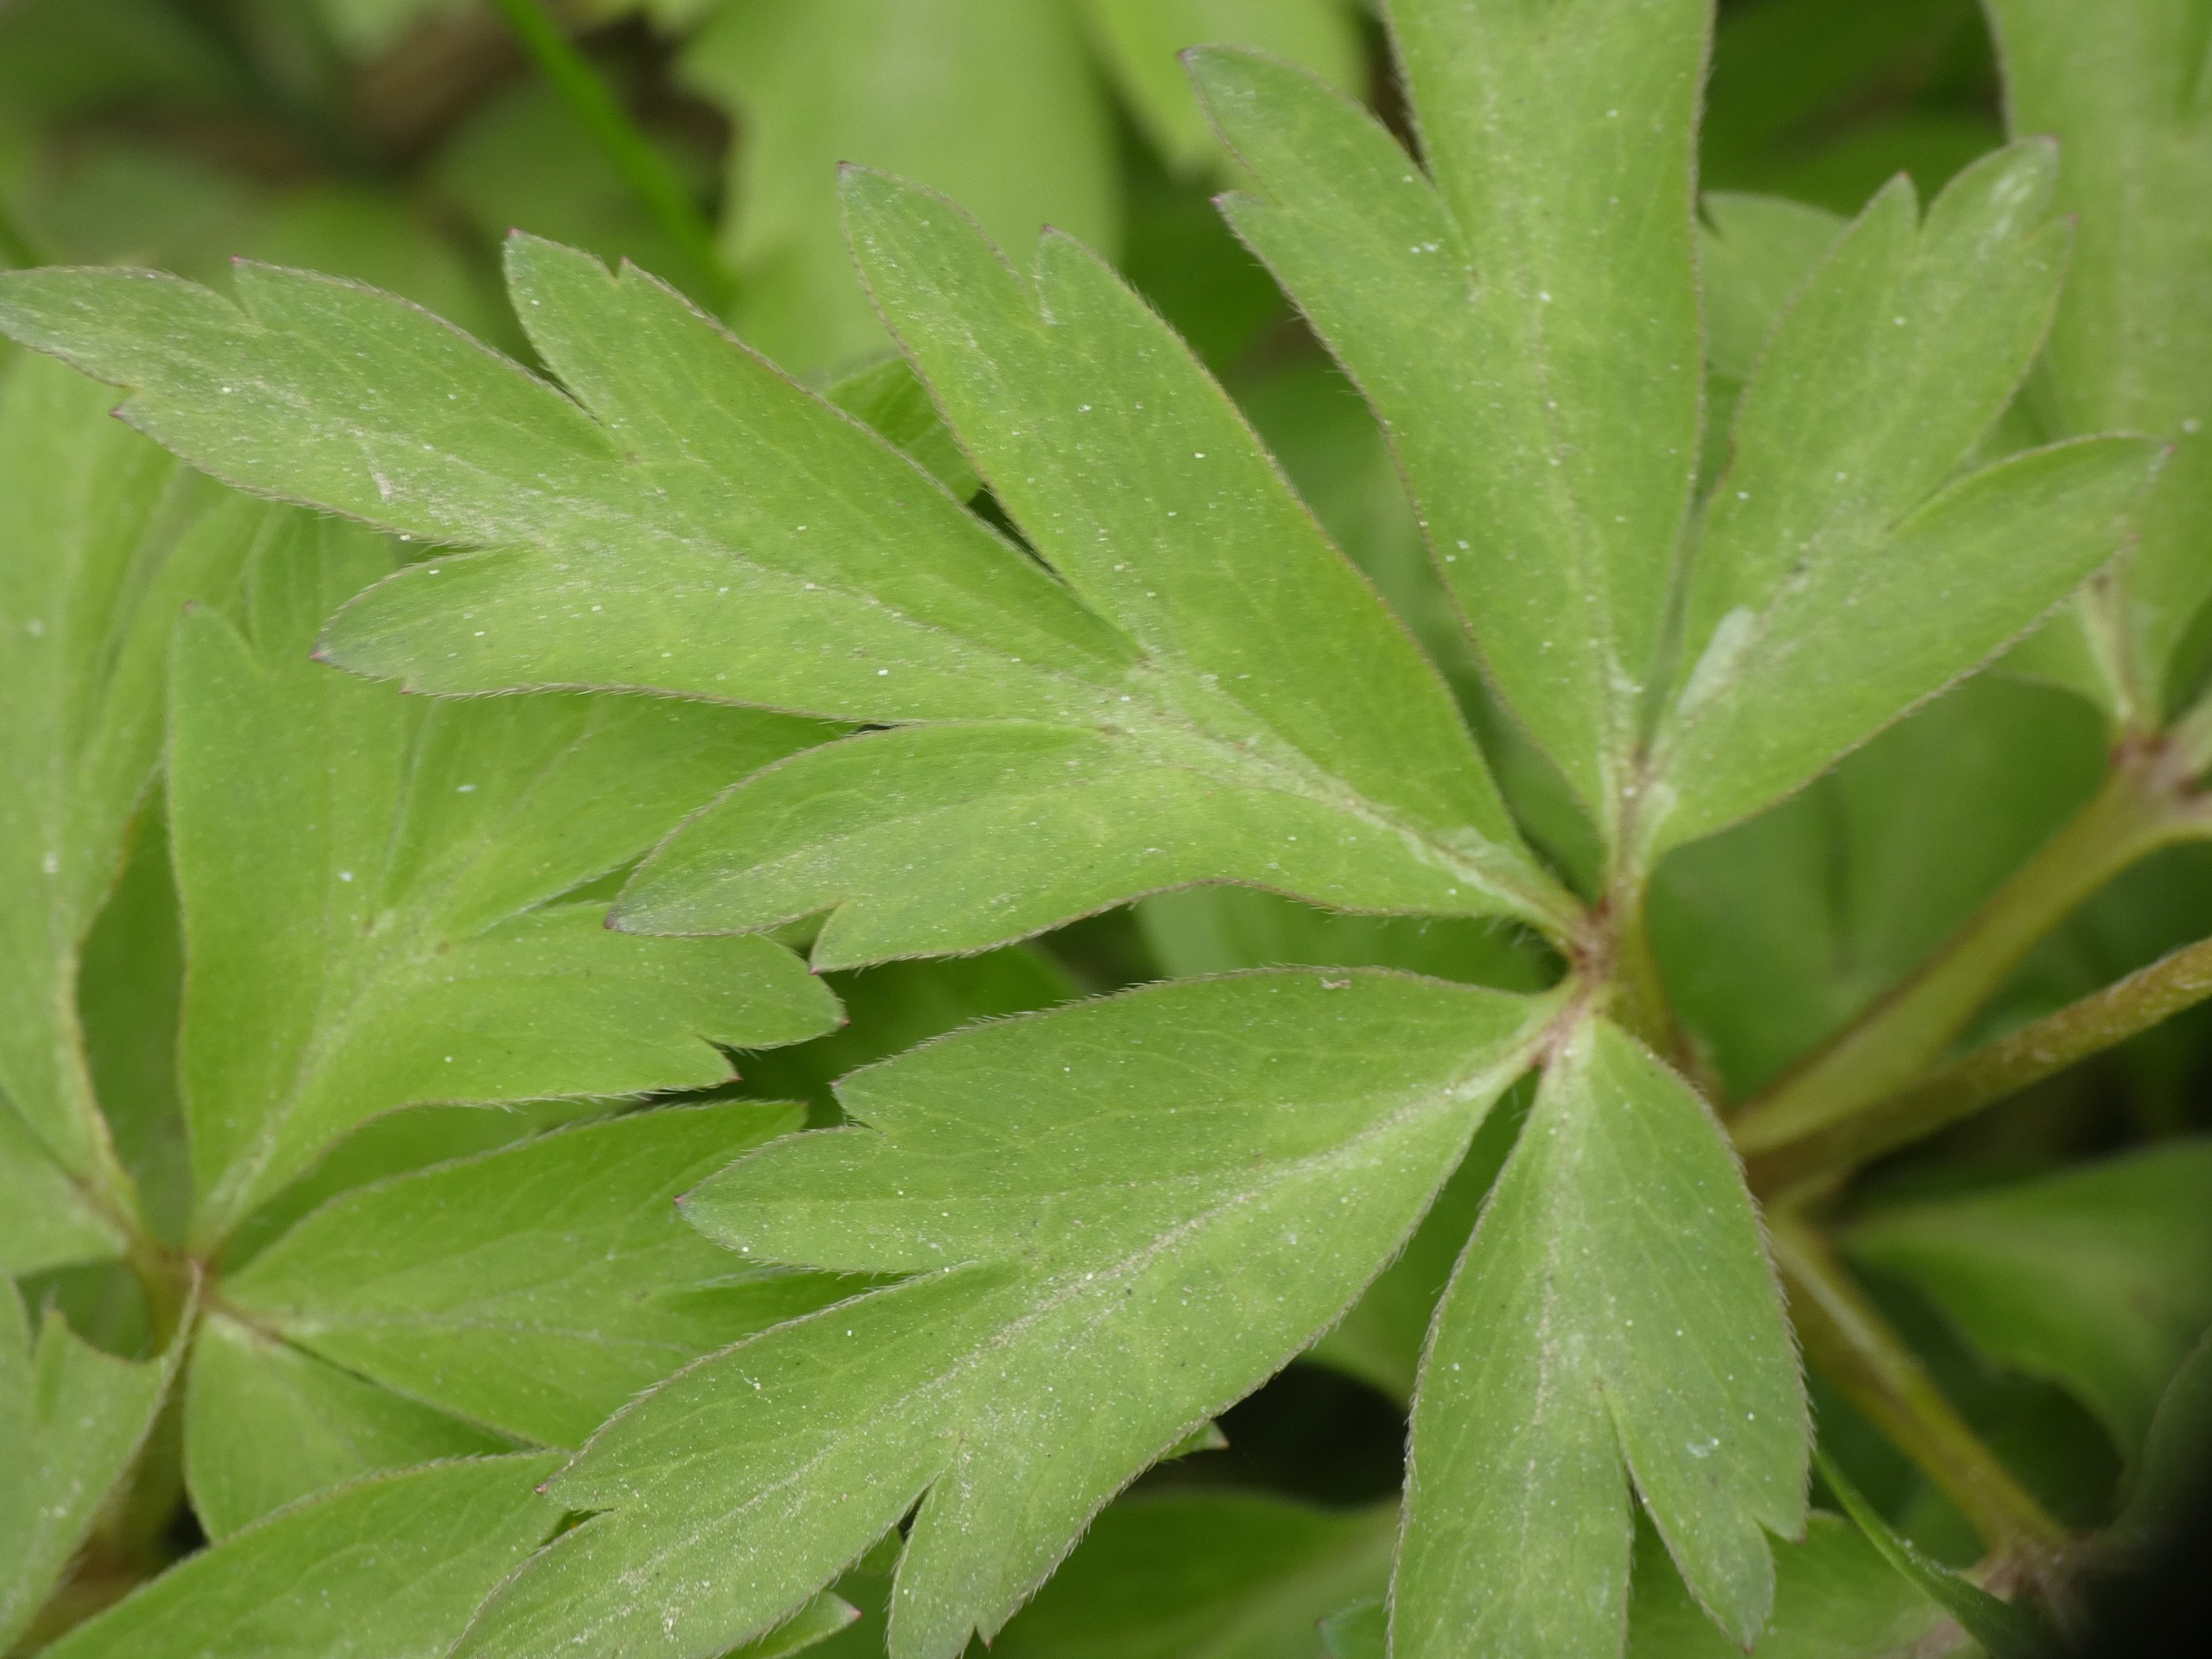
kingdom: Plantae
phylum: Tracheophyta
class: Magnoliopsida
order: Ranunculales
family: Ranunculaceae
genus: Anemone
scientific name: Anemone nemorosa
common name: Hvid anemone
